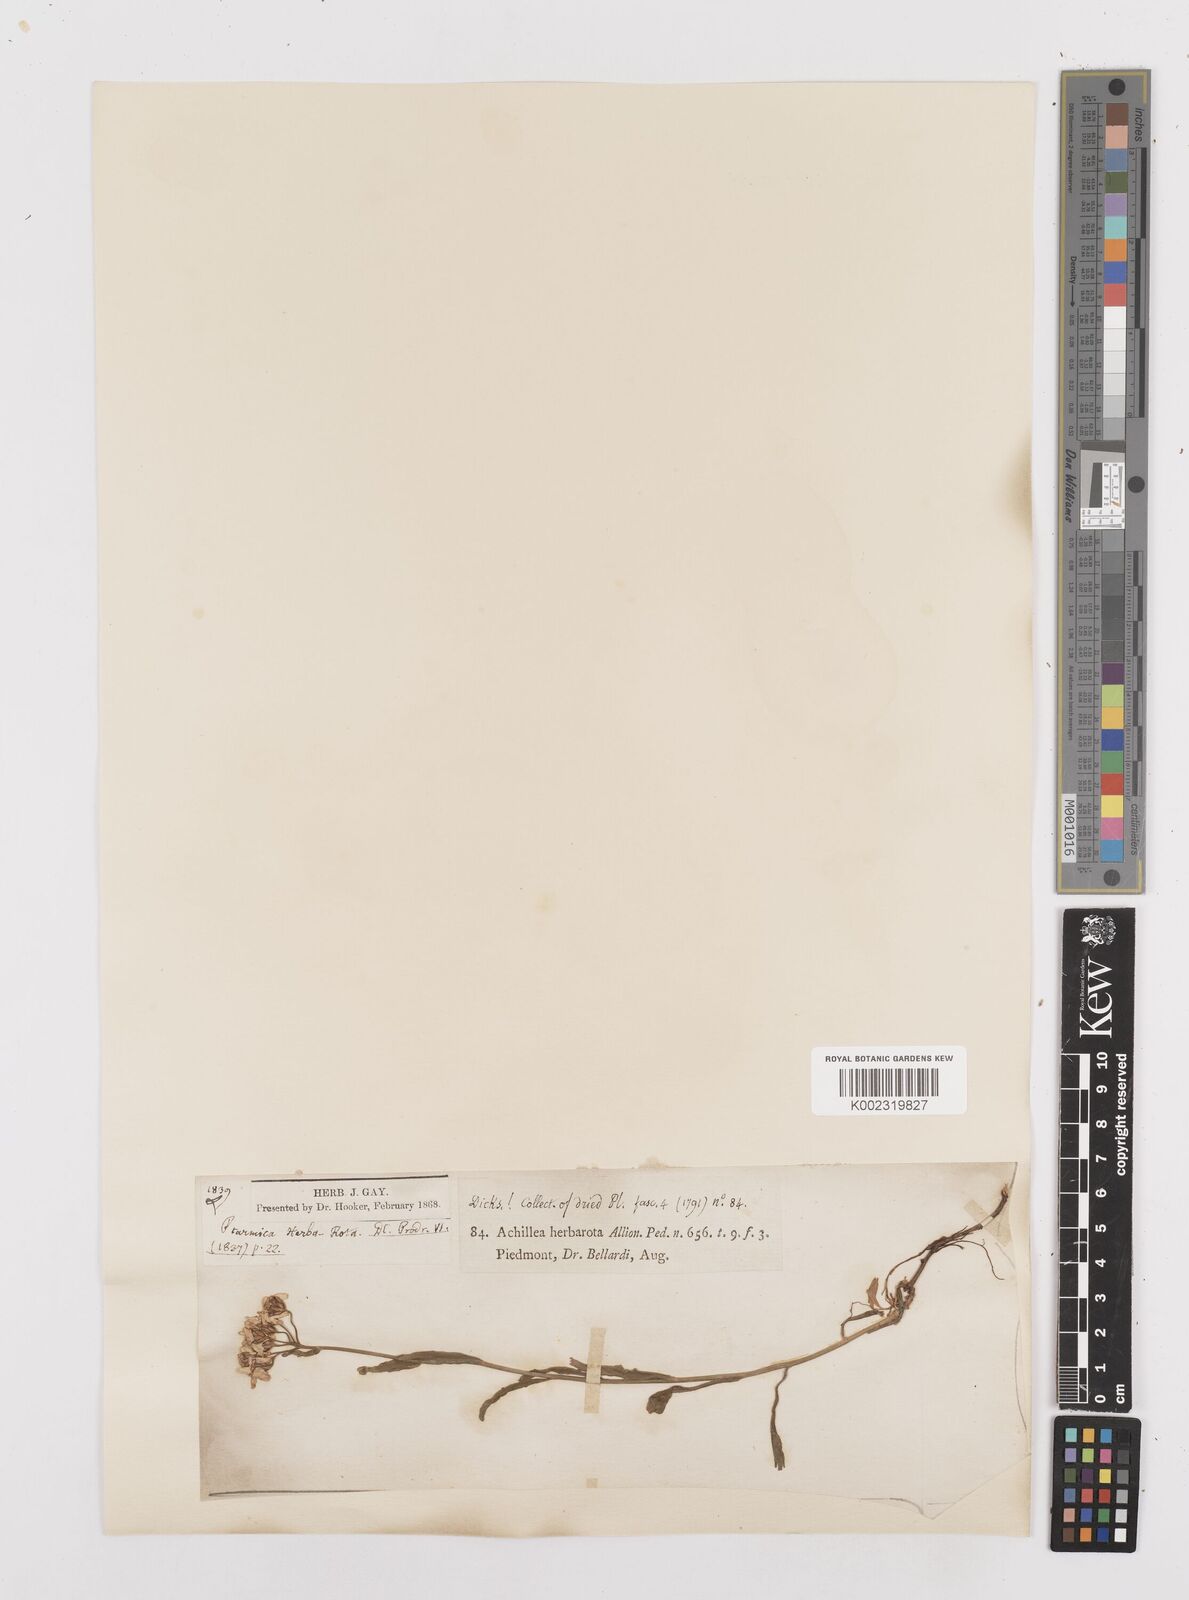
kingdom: Plantae
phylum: Tracheophyta
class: Magnoliopsida
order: Asterales
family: Asteraceae
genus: Achillea
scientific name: Achillea erba-rotta
